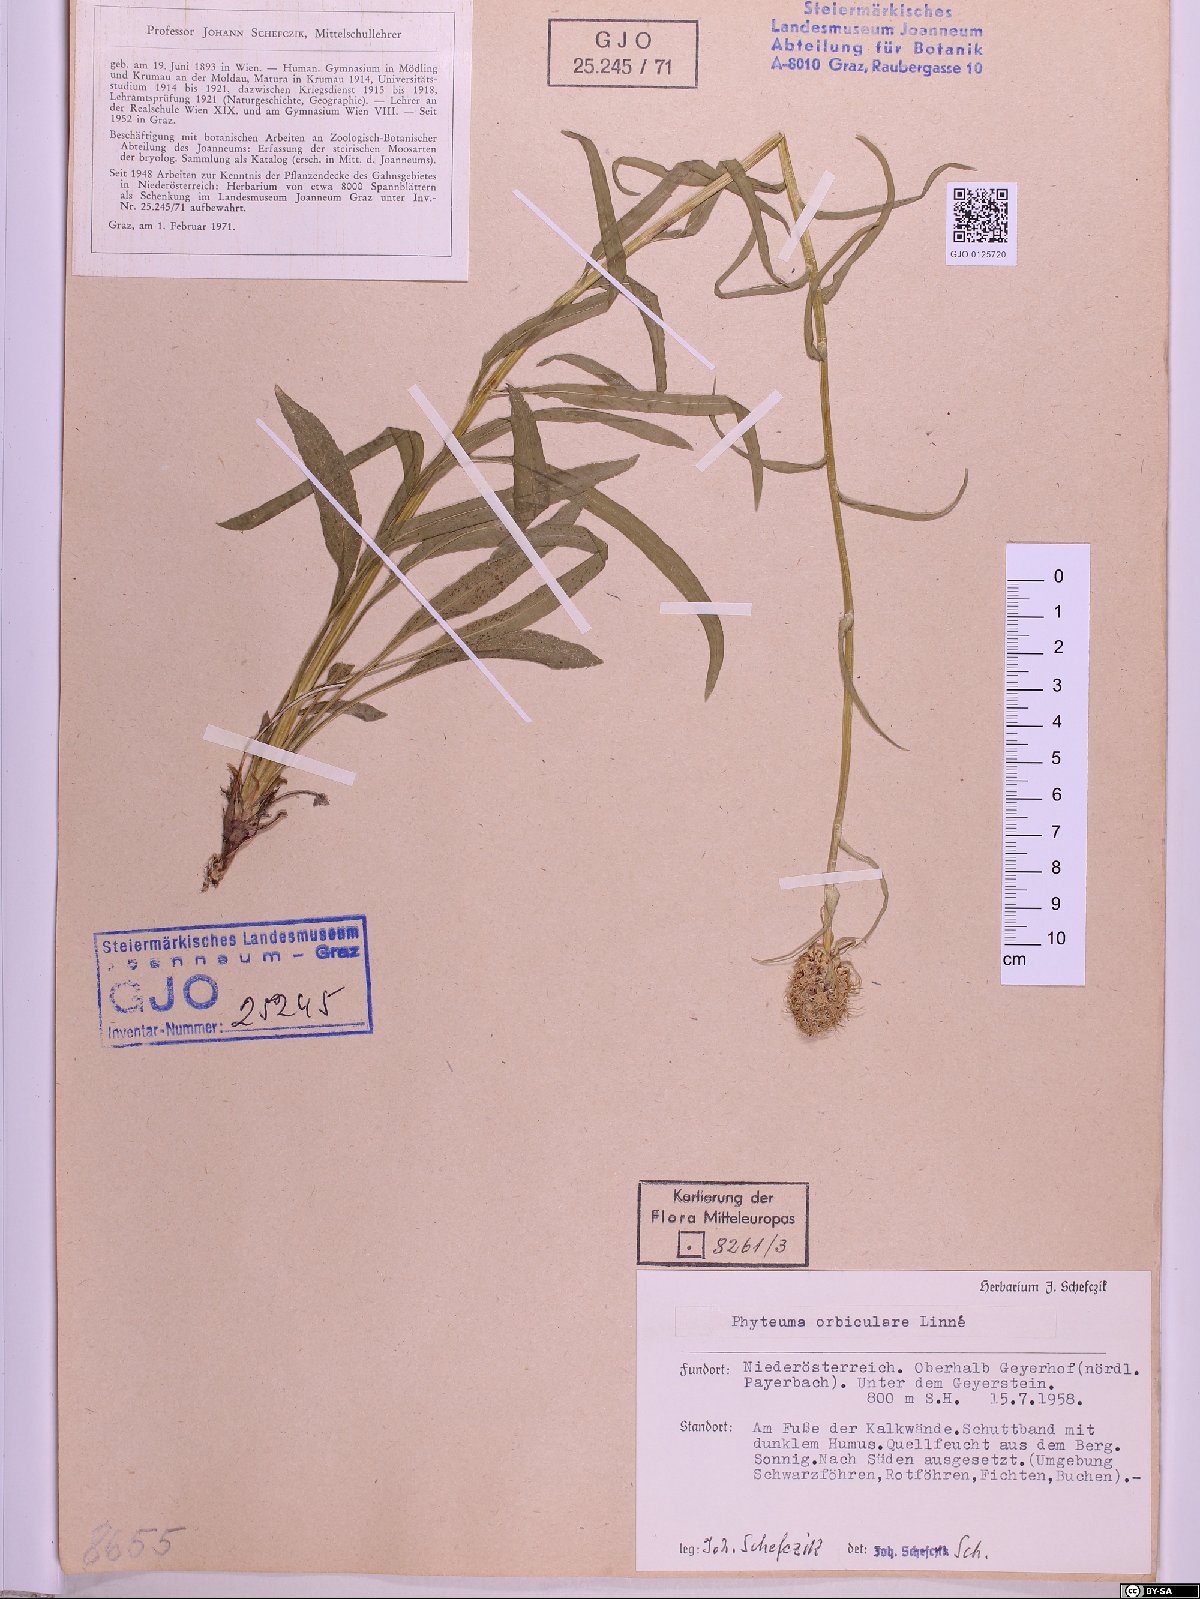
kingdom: Plantae
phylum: Tracheophyta
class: Magnoliopsida
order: Asterales
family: Campanulaceae
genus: Phyteuma
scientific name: Phyteuma orbiculare
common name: Round-headed rampion
